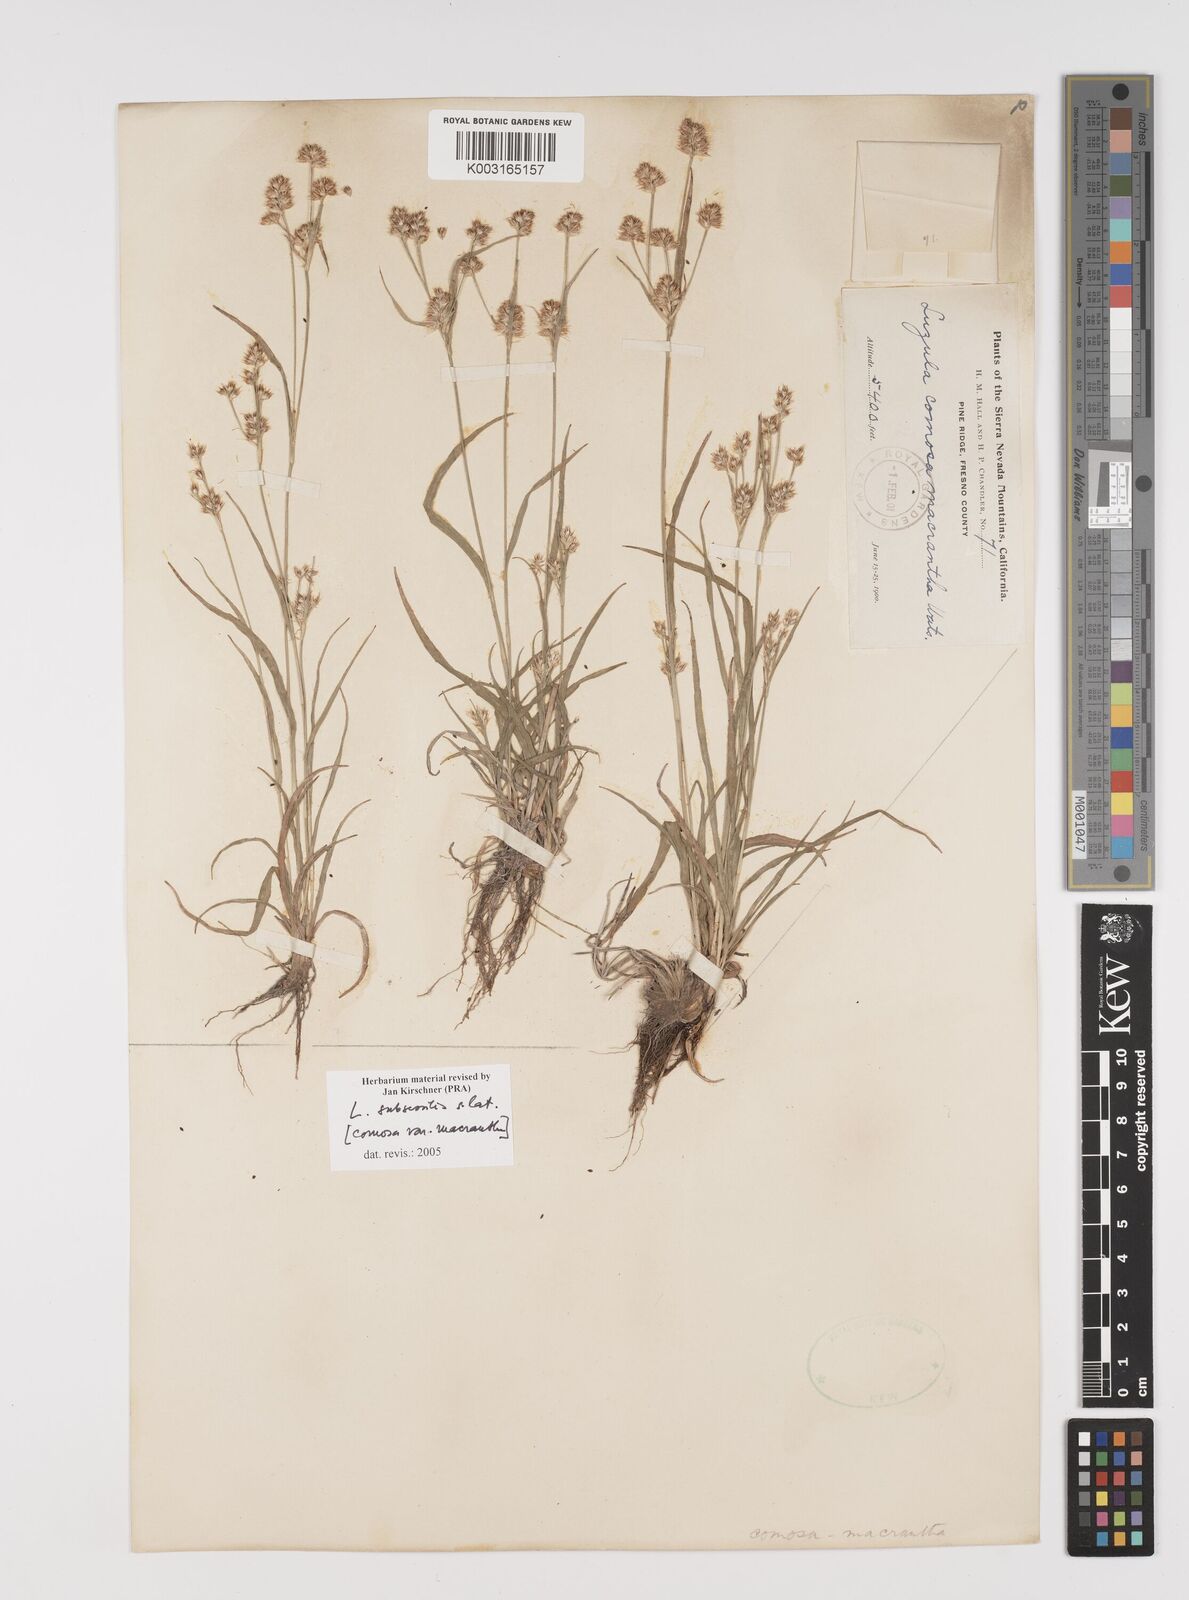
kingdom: Plantae
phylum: Tracheophyta
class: Liliopsida
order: Poales
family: Juncaceae
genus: Luzula
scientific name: Luzula macrantha
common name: Large-anthered woodrush
